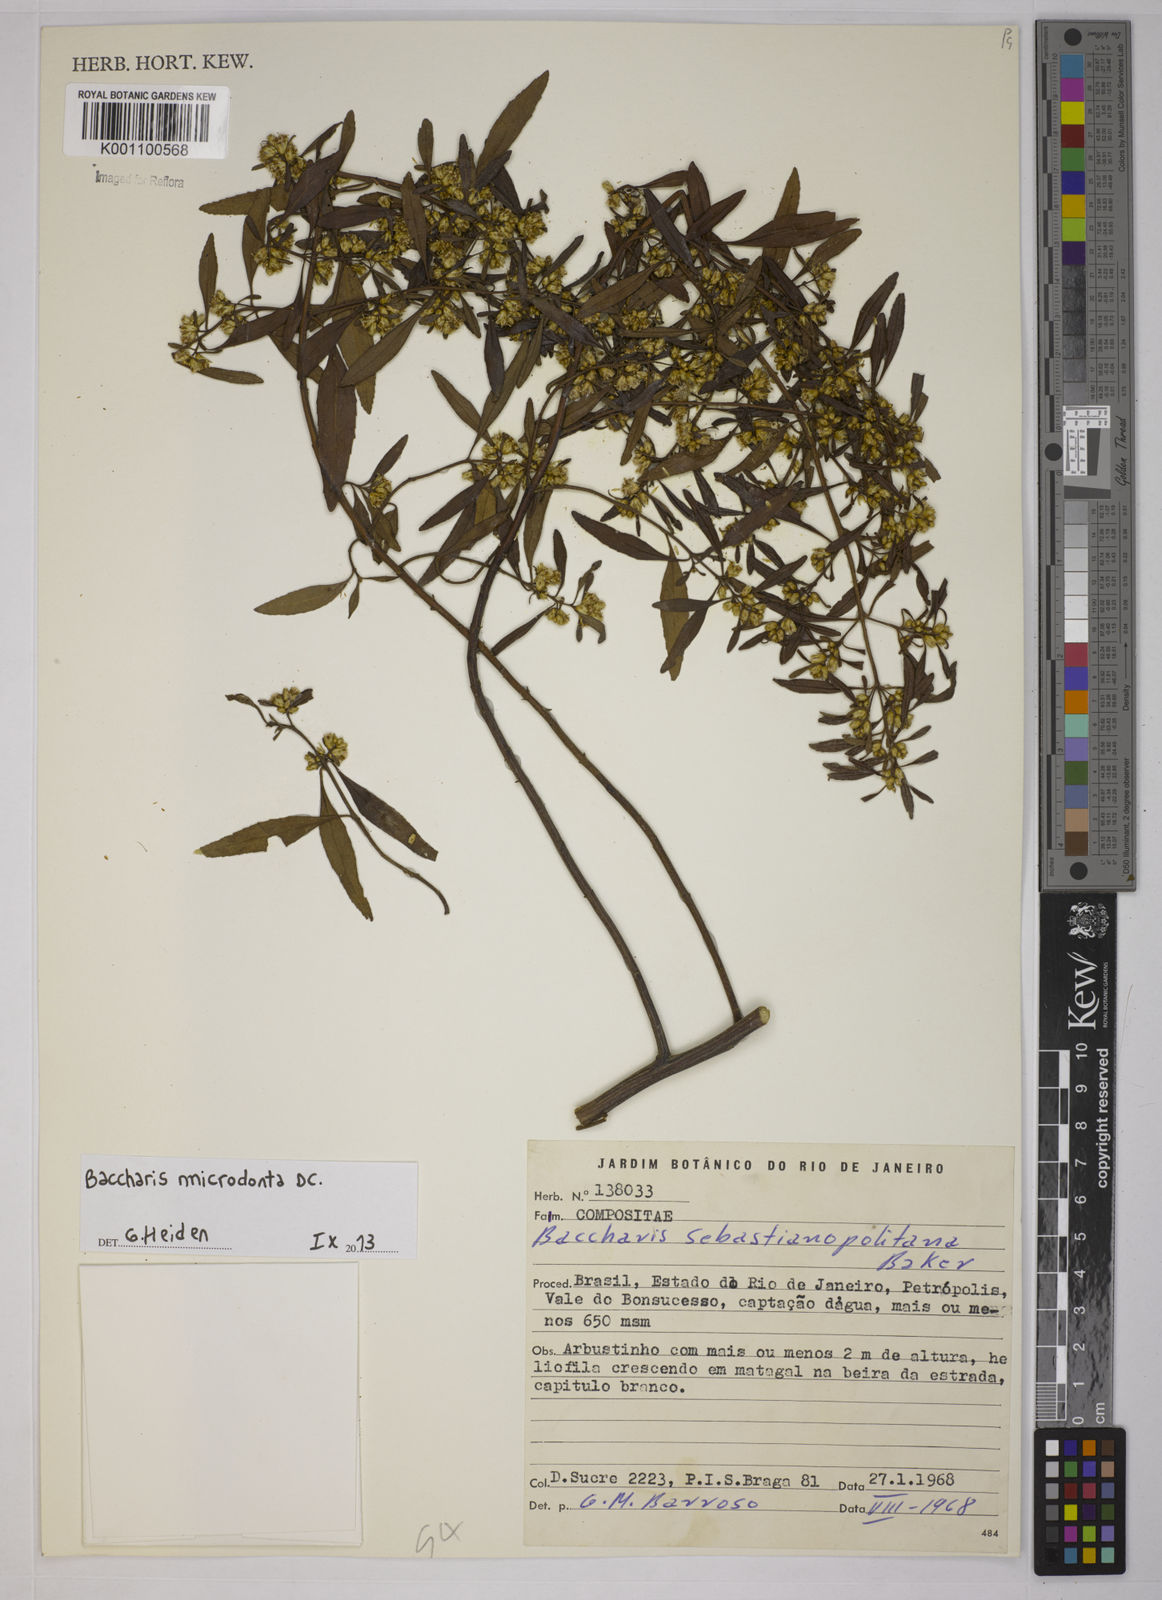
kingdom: Plantae
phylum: Tracheophyta
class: Magnoliopsida
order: Asterales
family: Asteraceae
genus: Baccharis
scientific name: Baccharis microdonta
